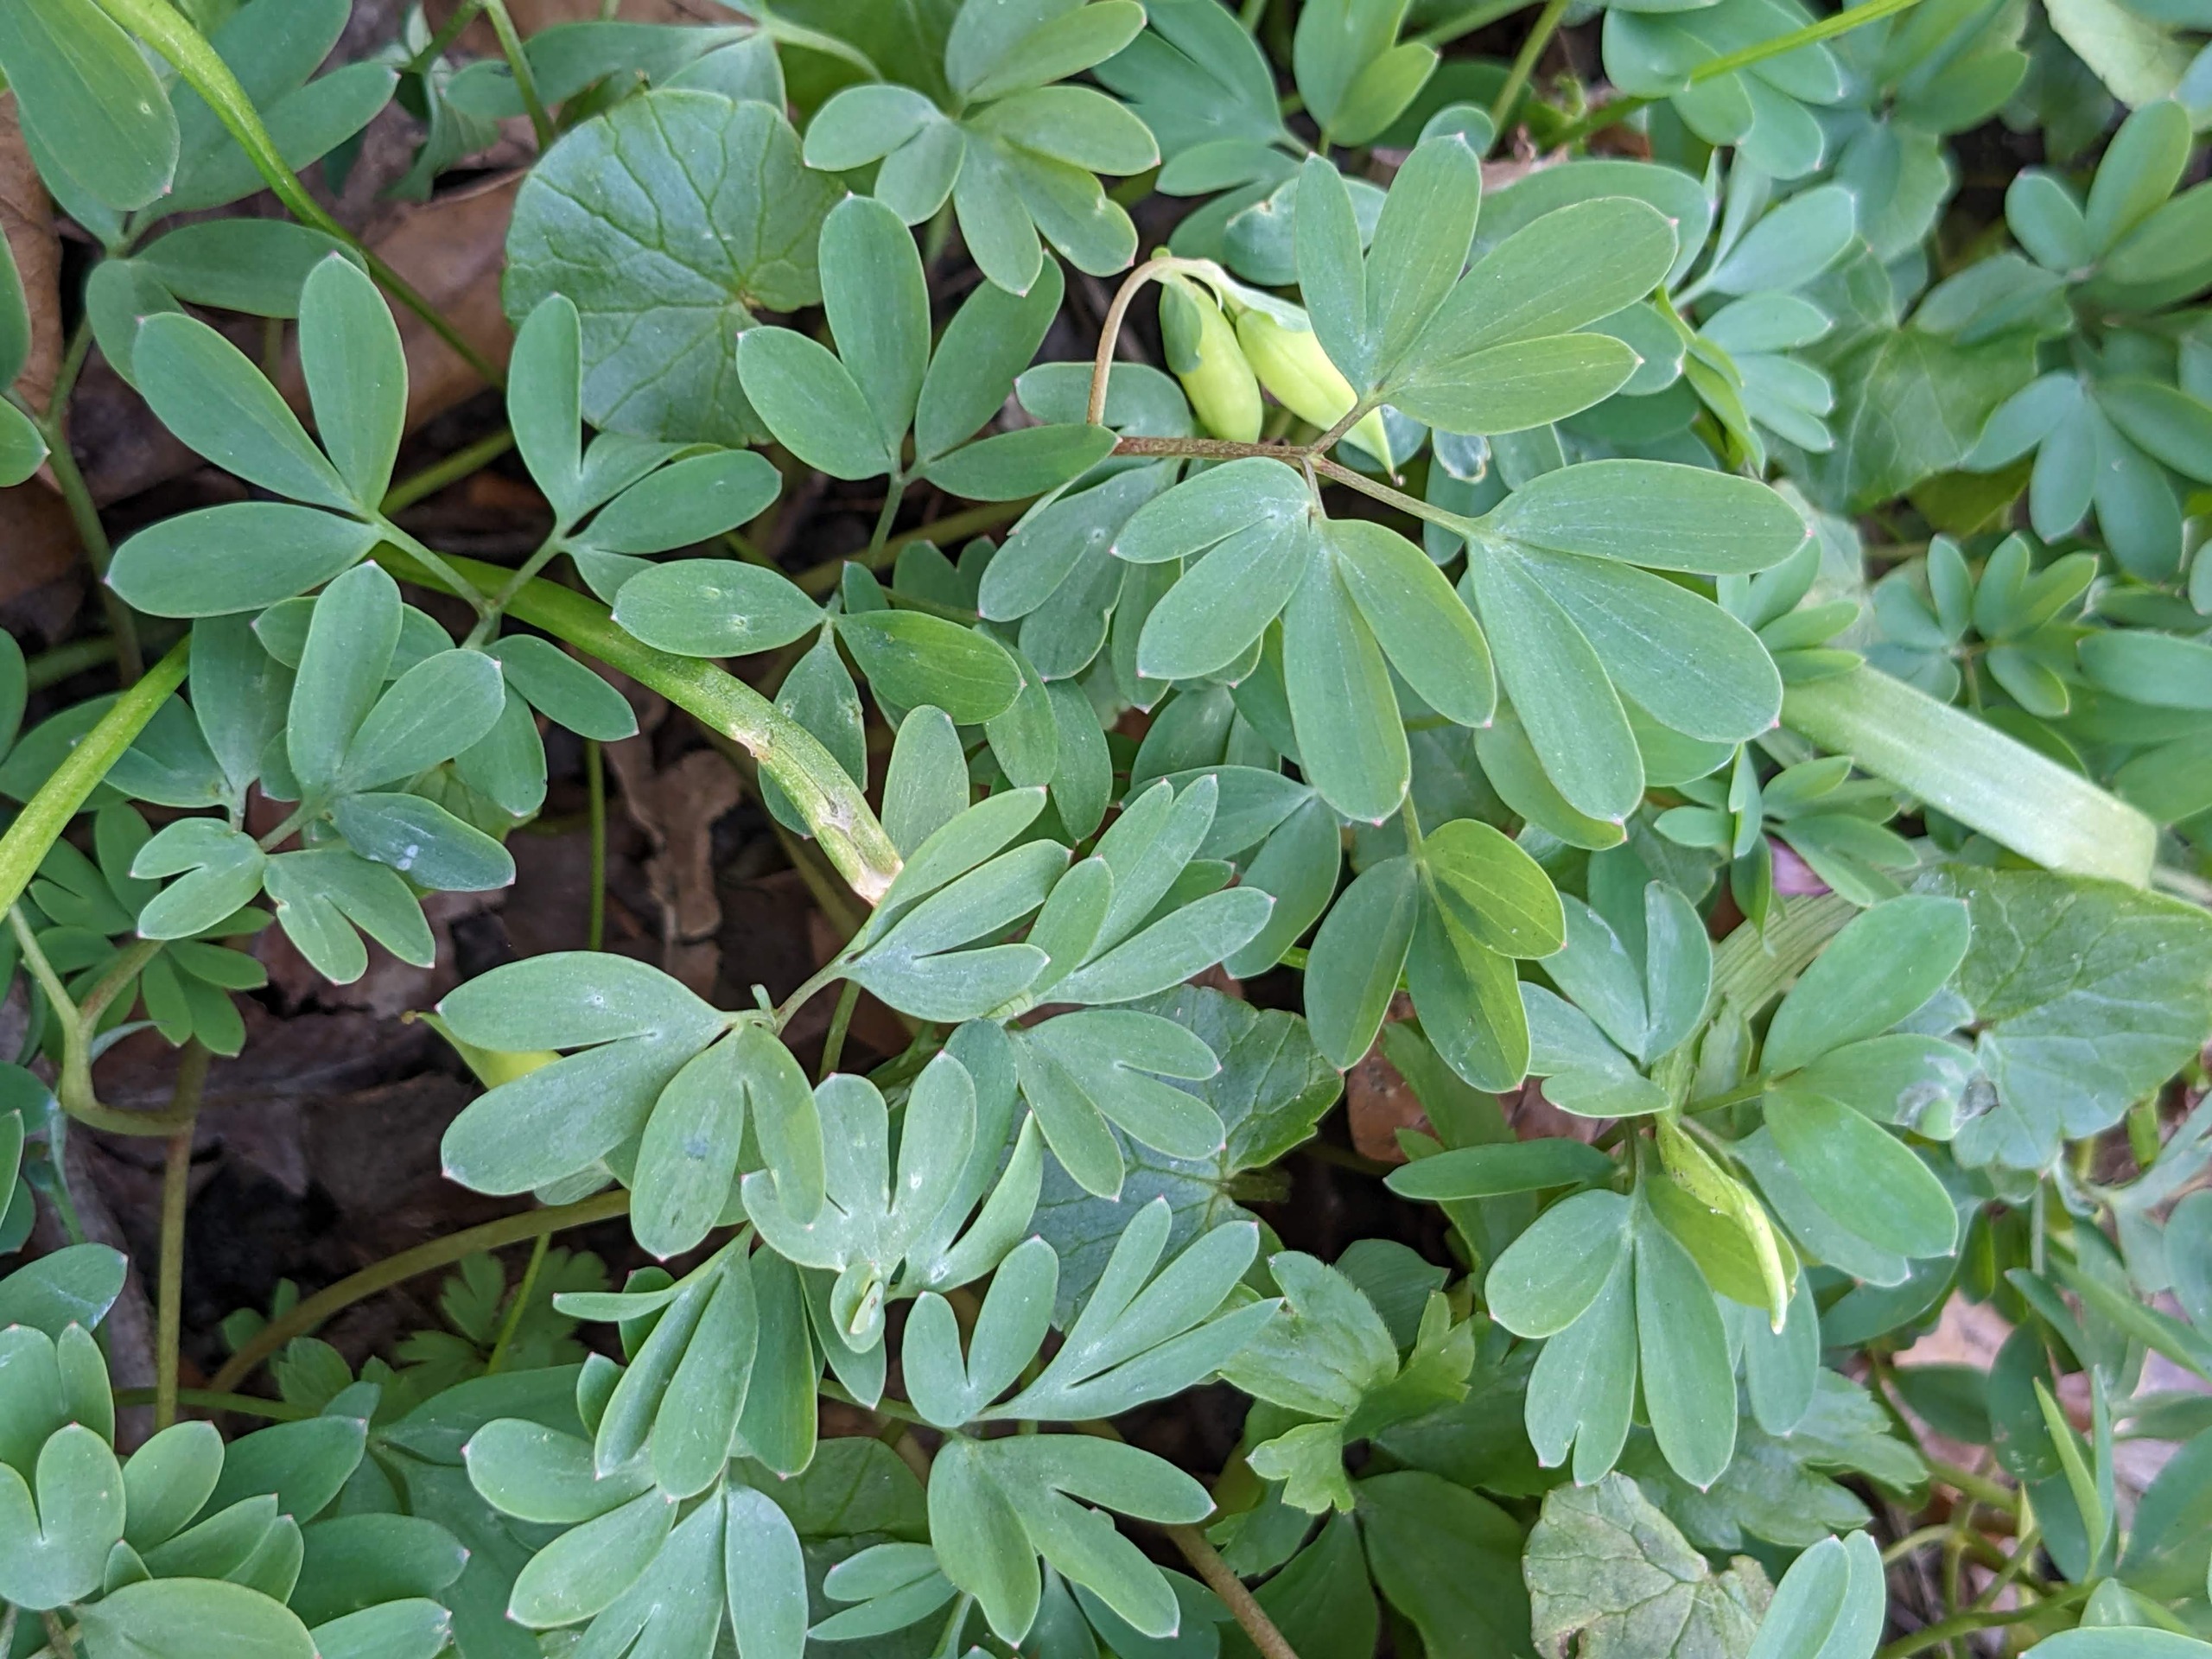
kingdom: Plantae
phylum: Tracheophyta
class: Magnoliopsida
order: Ranunculales
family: Papaveraceae
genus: Corydalis
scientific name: Corydalis intermedia
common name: Liden lærkespore
